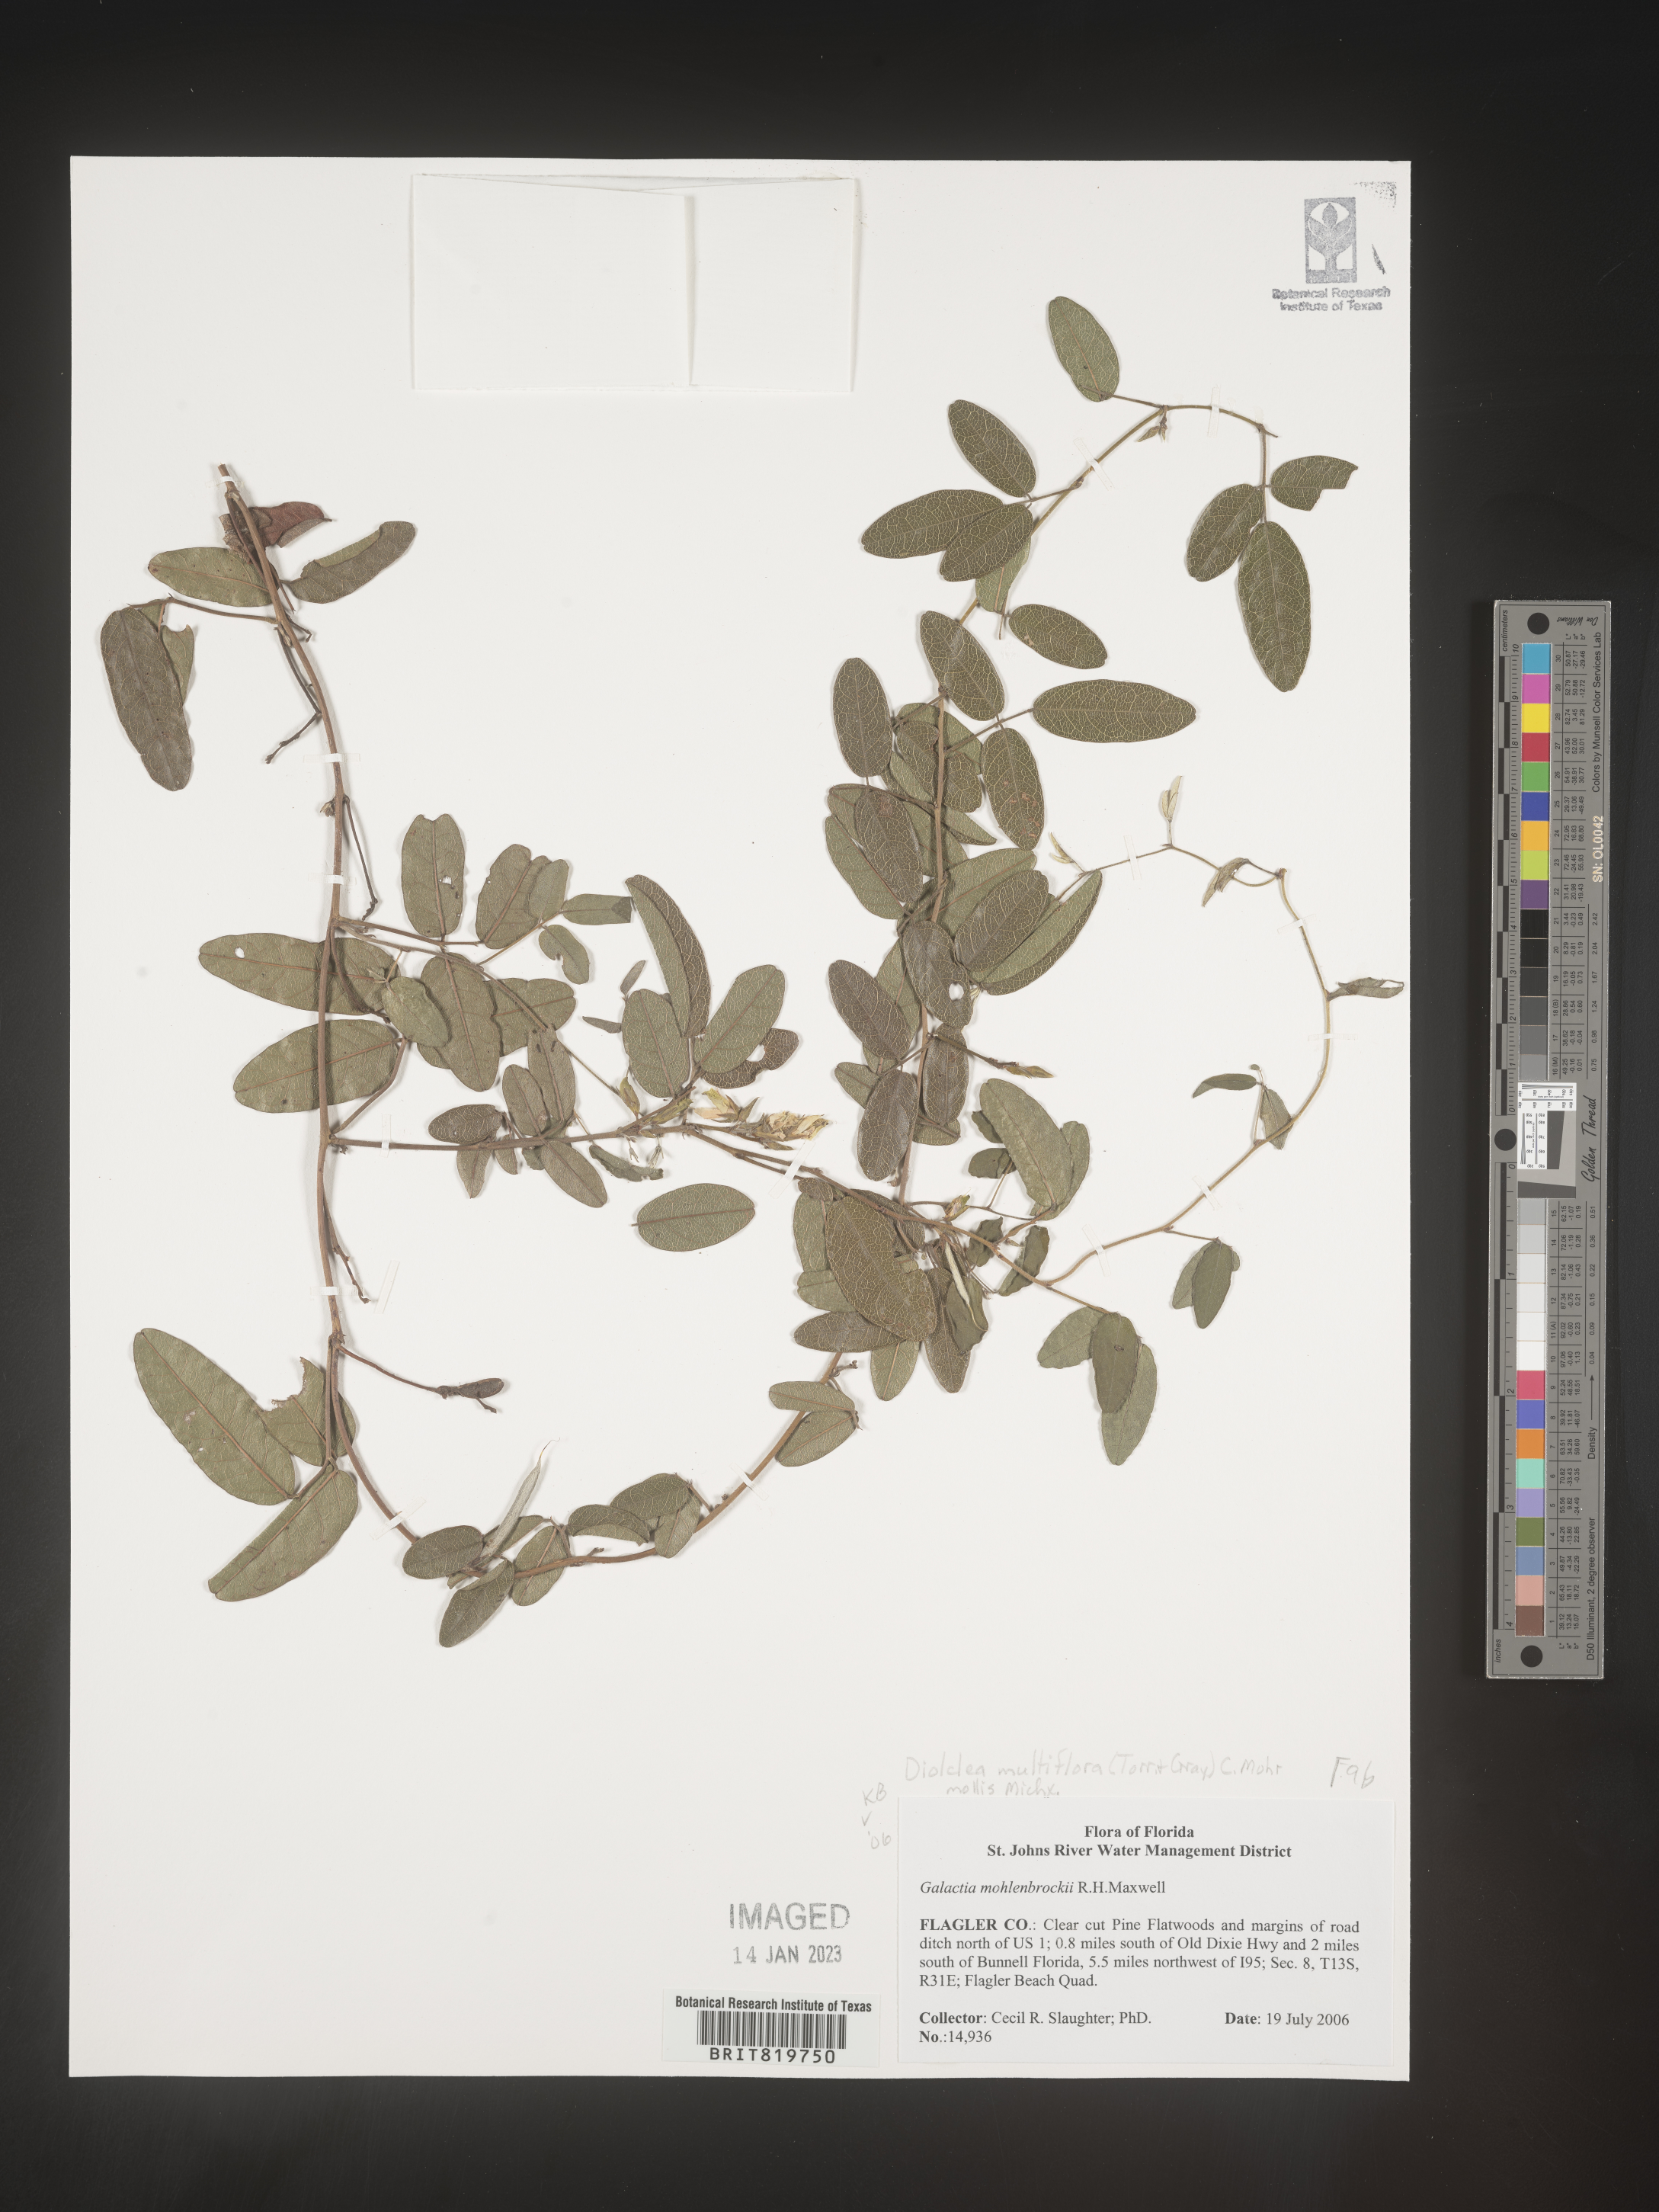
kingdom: Plantae
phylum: Tracheophyta
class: Magnoliopsida
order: Fabales
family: Fabaceae
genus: Dioclea
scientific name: Dioclea
